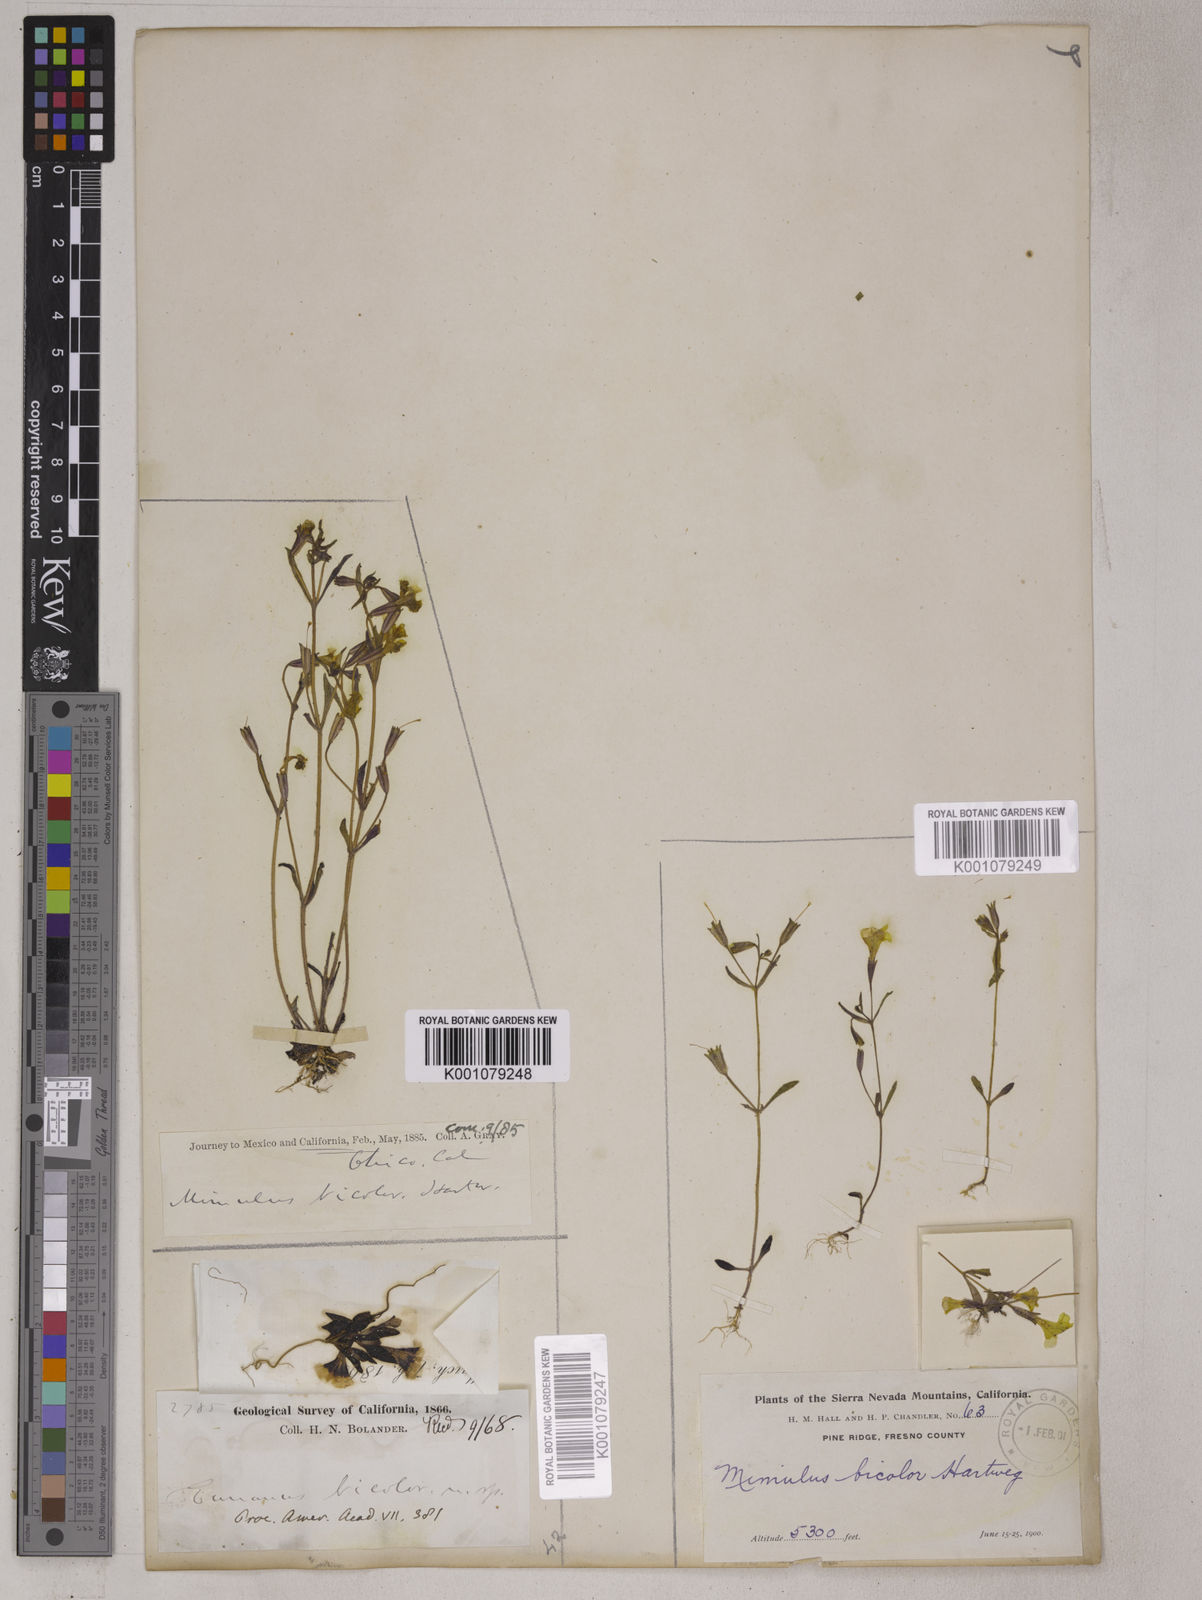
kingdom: Plantae
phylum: Tracheophyta
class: Magnoliopsida
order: Lamiales
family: Phrymaceae
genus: Erythranthe
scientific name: Erythranthe bicolor
